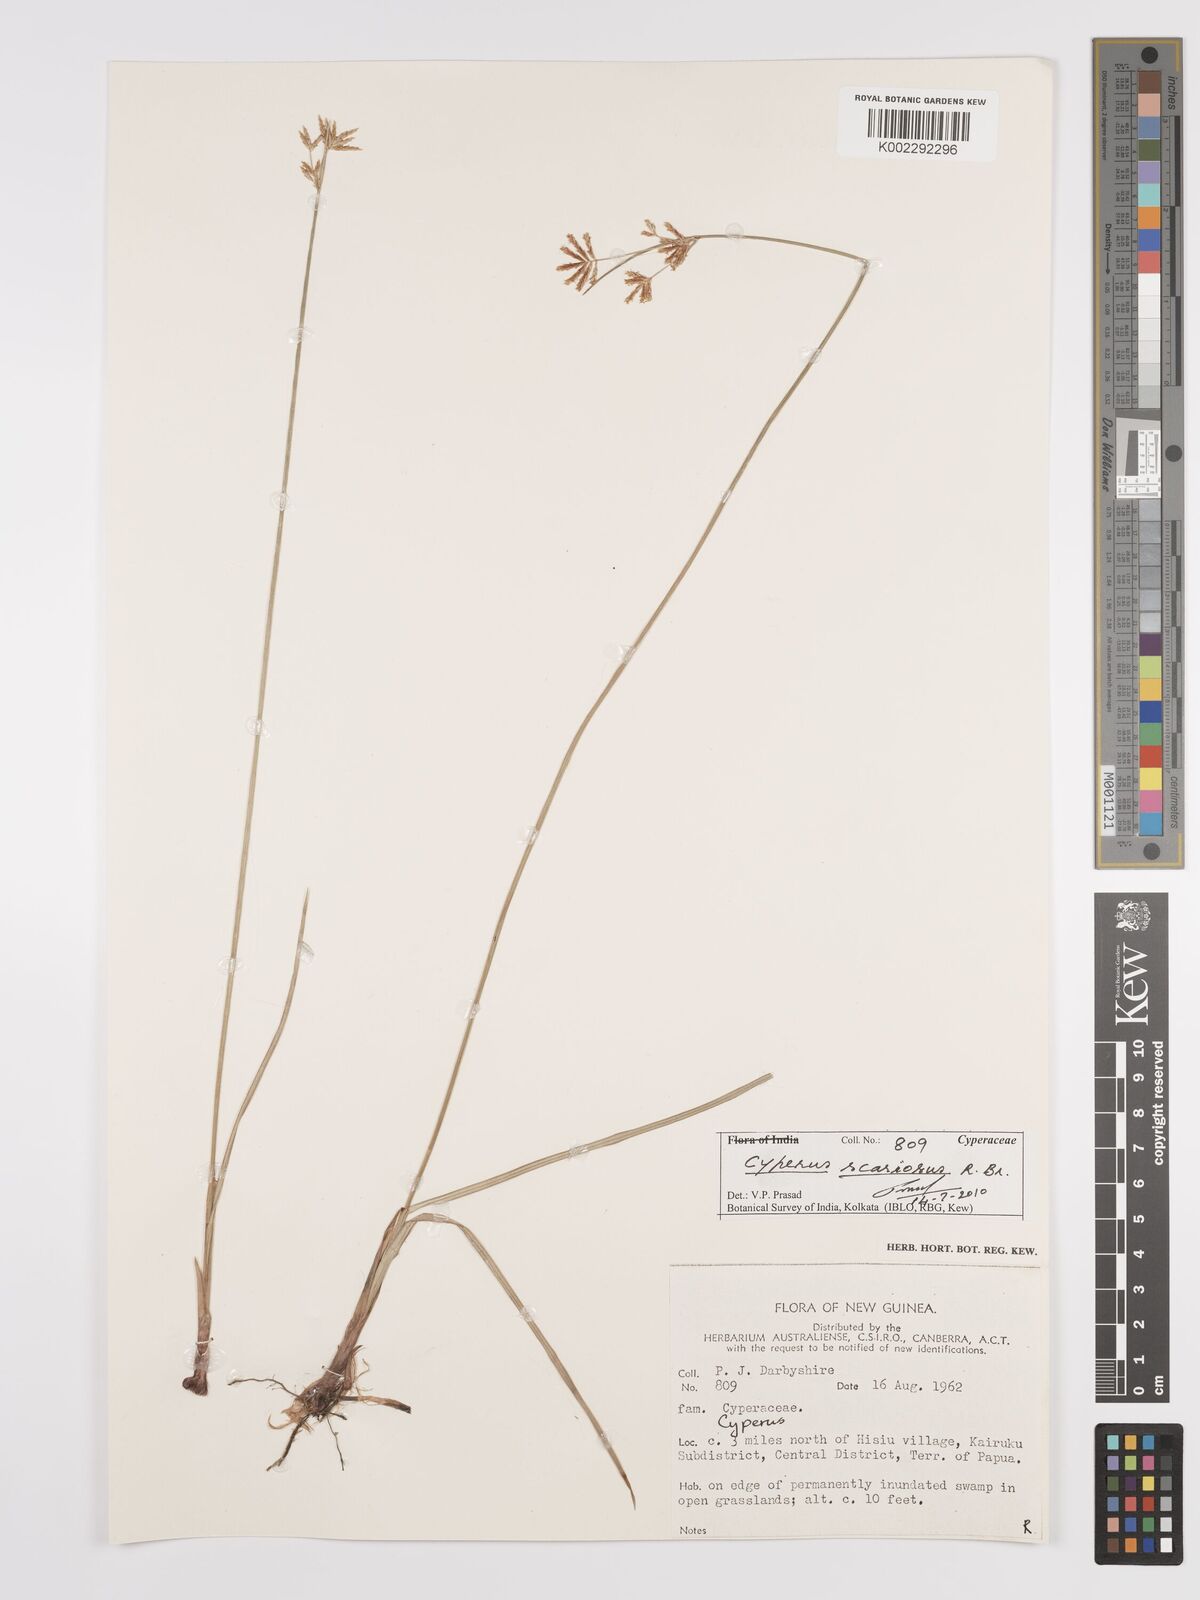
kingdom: Plantae
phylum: Tracheophyta
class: Liliopsida
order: Poales
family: Cyperaceae
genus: Cyperus
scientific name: Cyperus scariosus
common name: Cypriol
